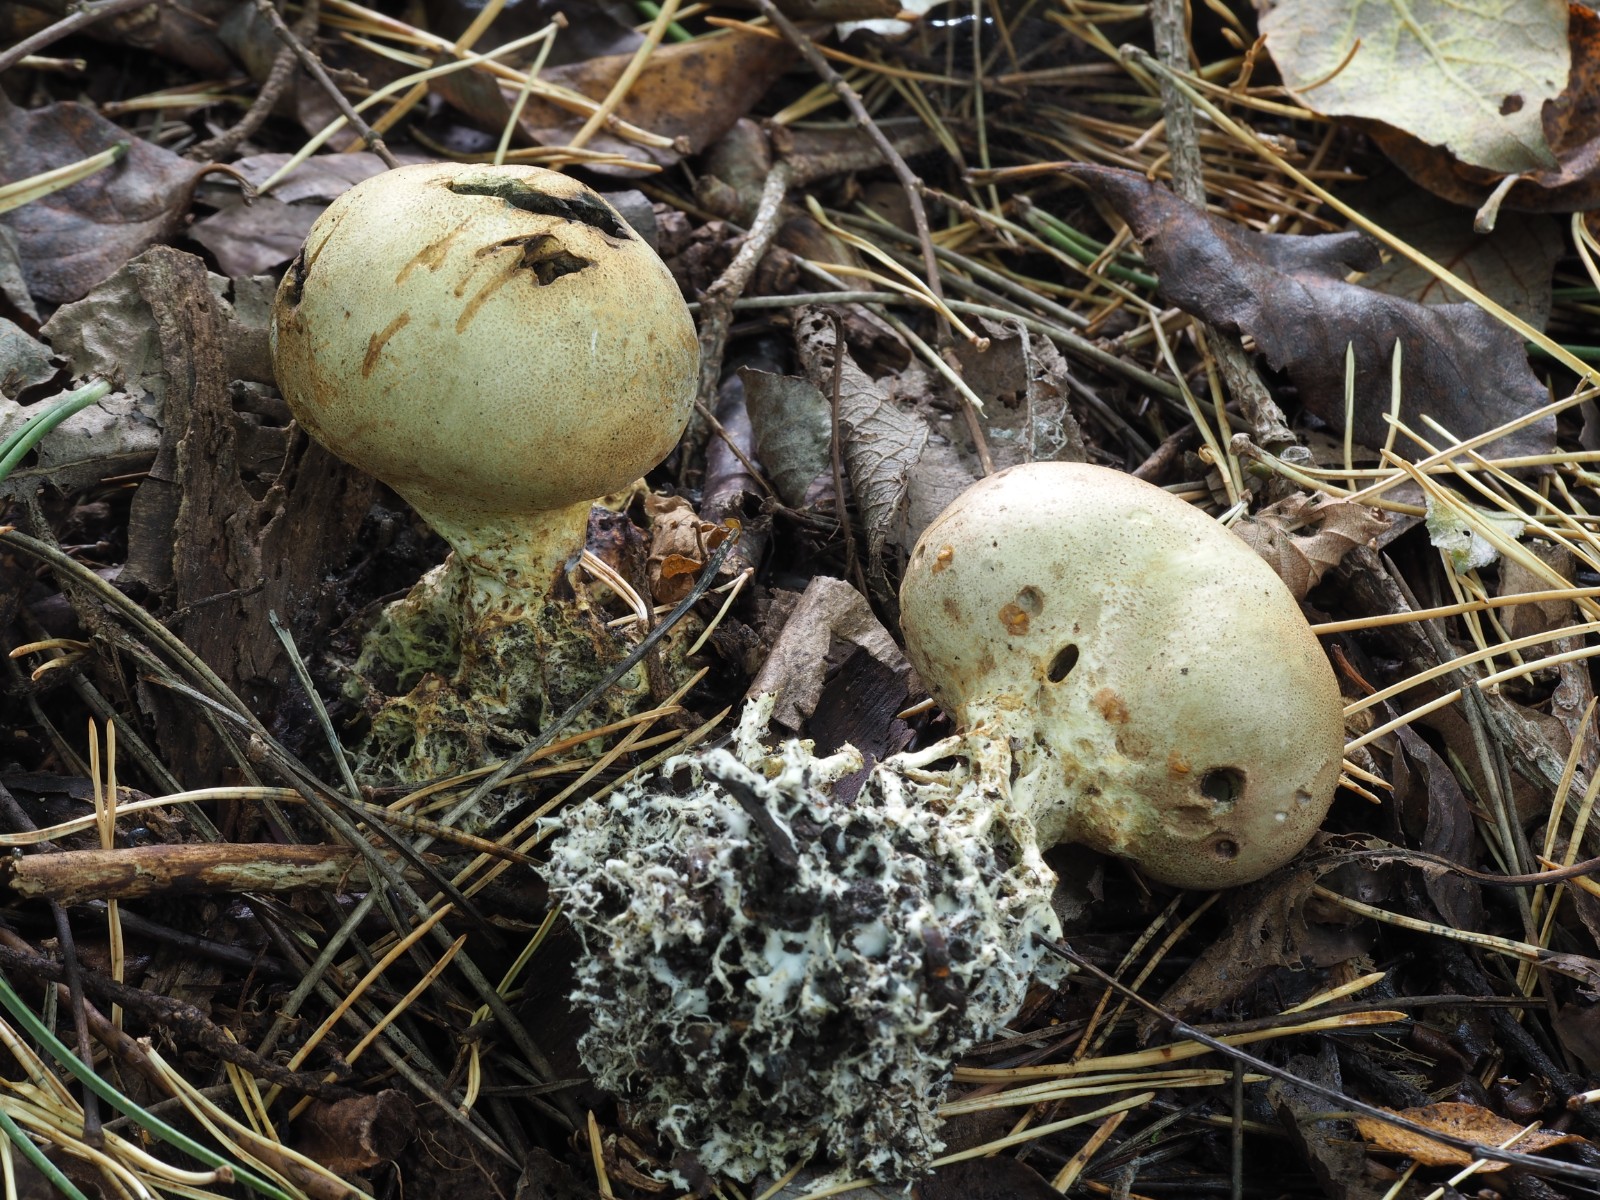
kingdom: Fungi
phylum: Basidiomycota
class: Agaricomycetes
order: Boletales
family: Sclerodermataceae
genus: Scleroderma
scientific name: Scleroderma verrucosum
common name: stilket bruskbold
